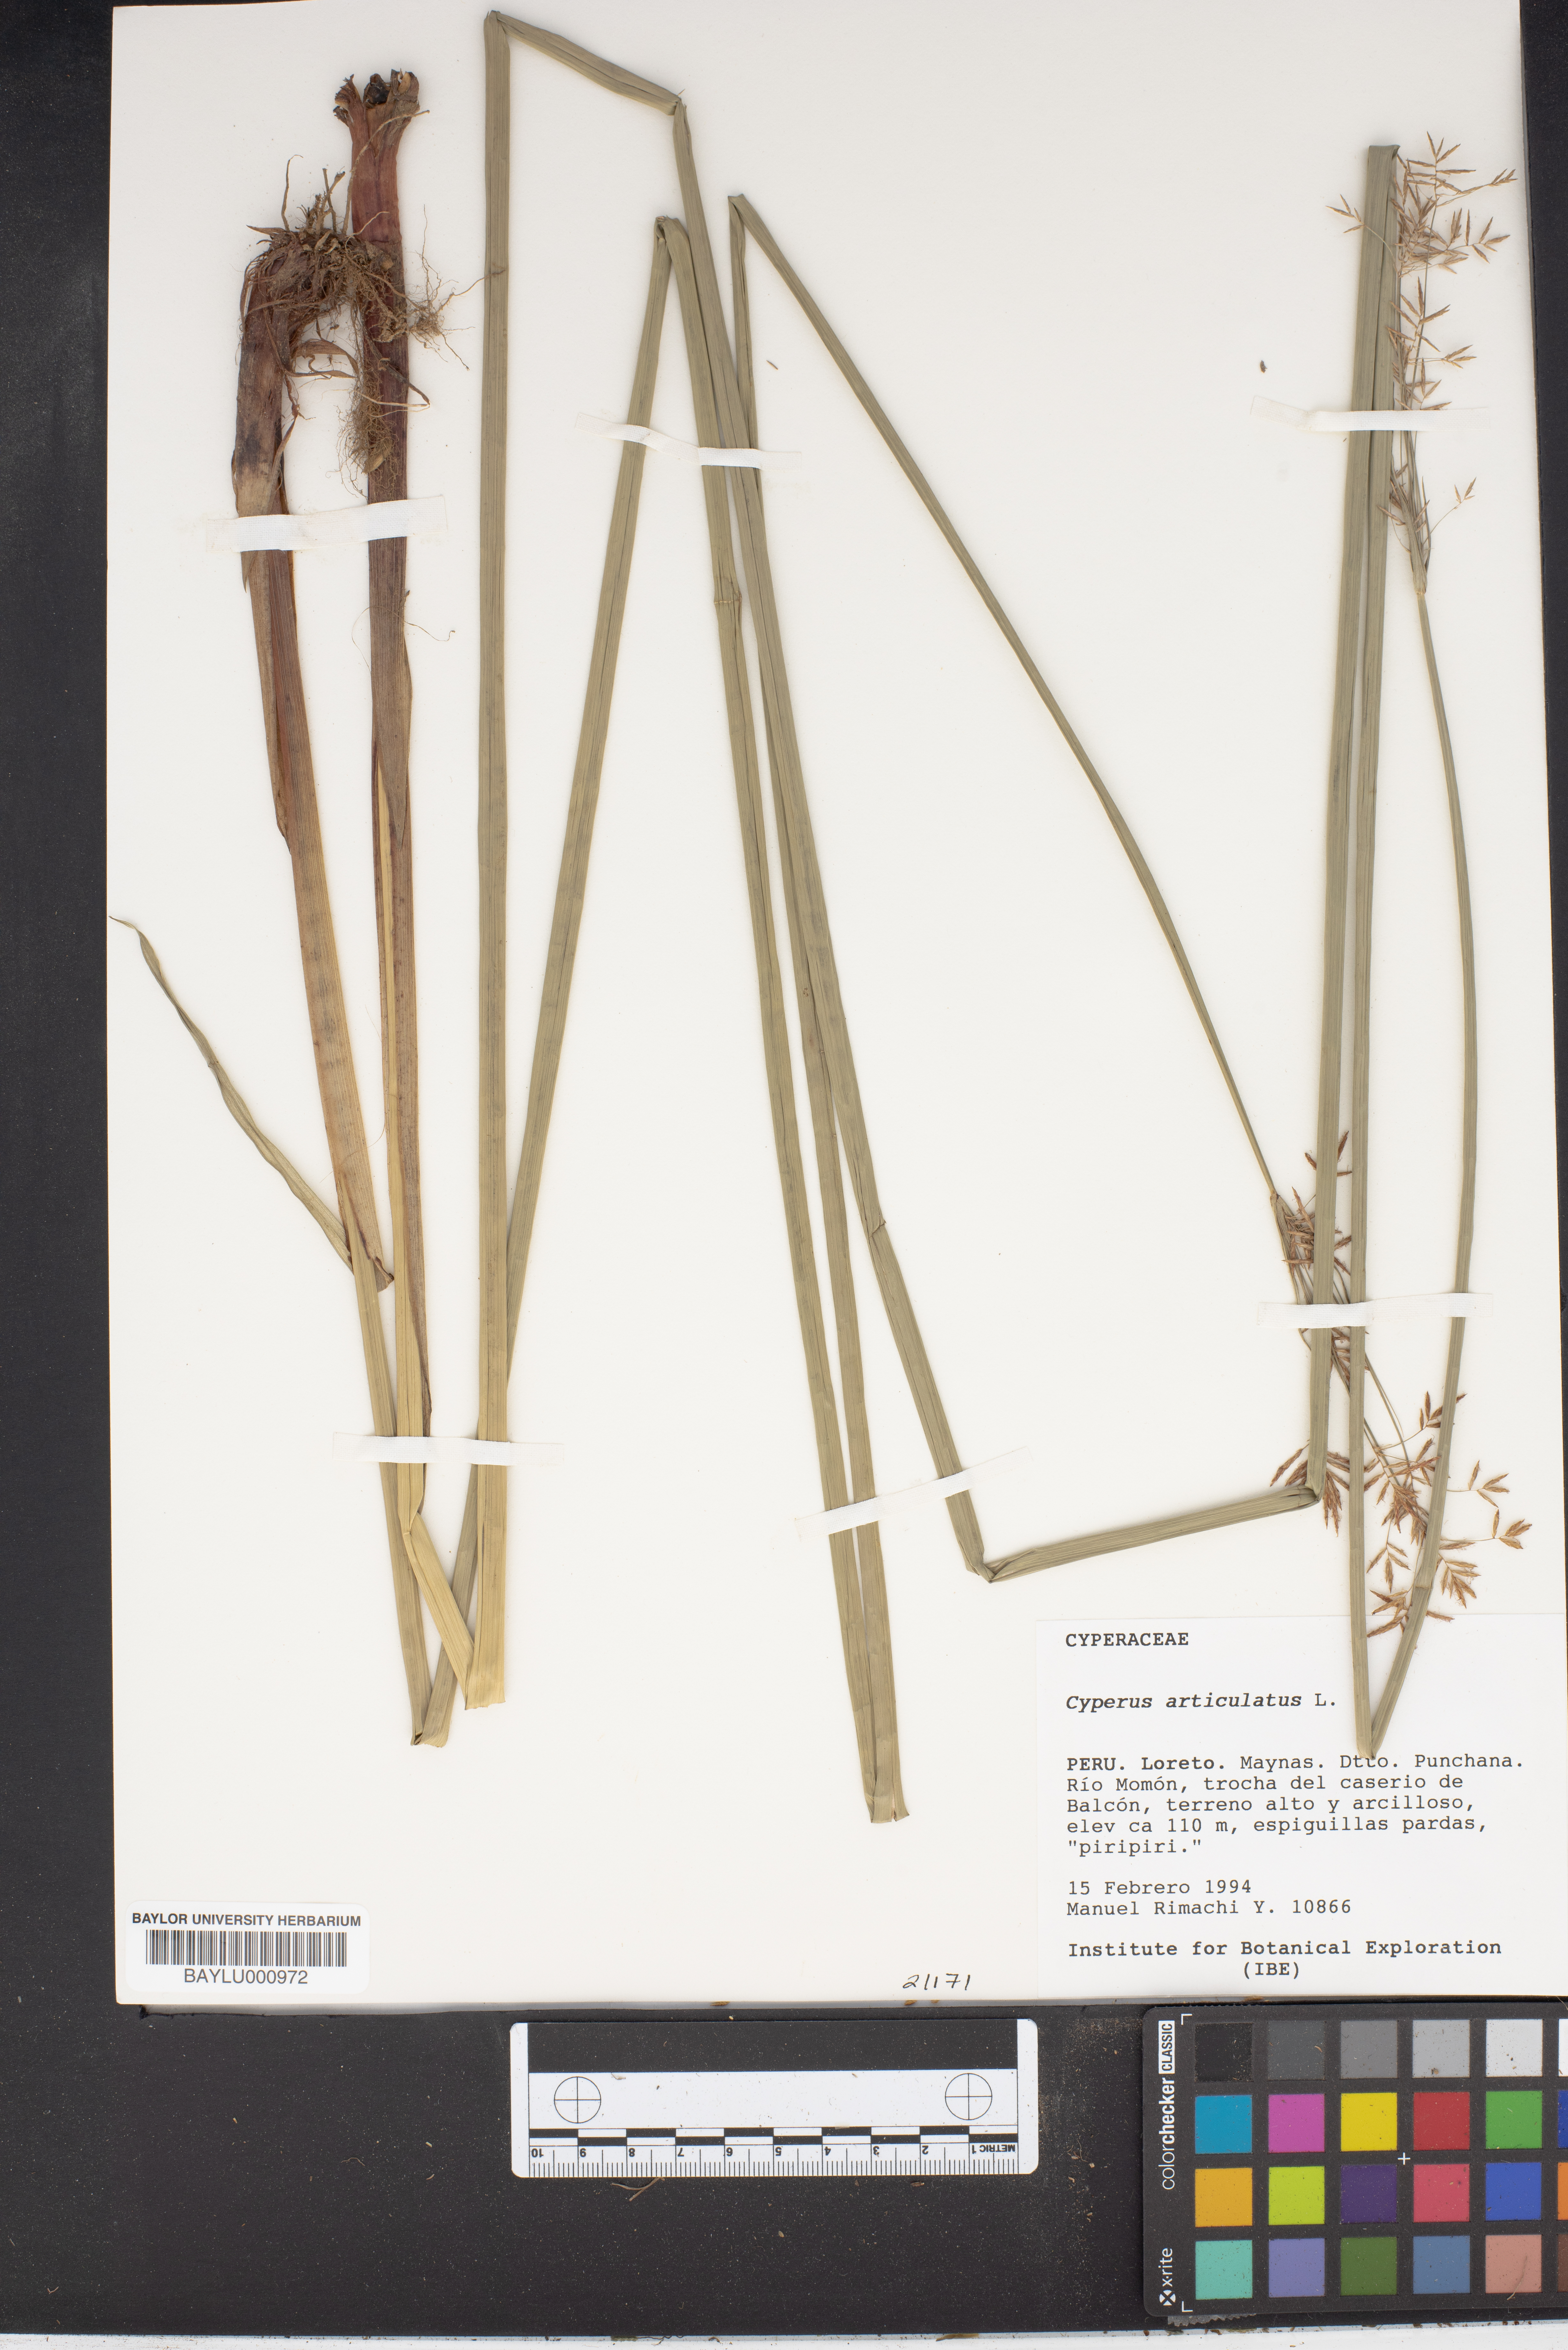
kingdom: Plantae
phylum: Tracheophyta
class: Liliopsida
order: Poales
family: Cyperaceae
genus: Cyperus
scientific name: Cyperus articulatus
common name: Jointed flatsedge
